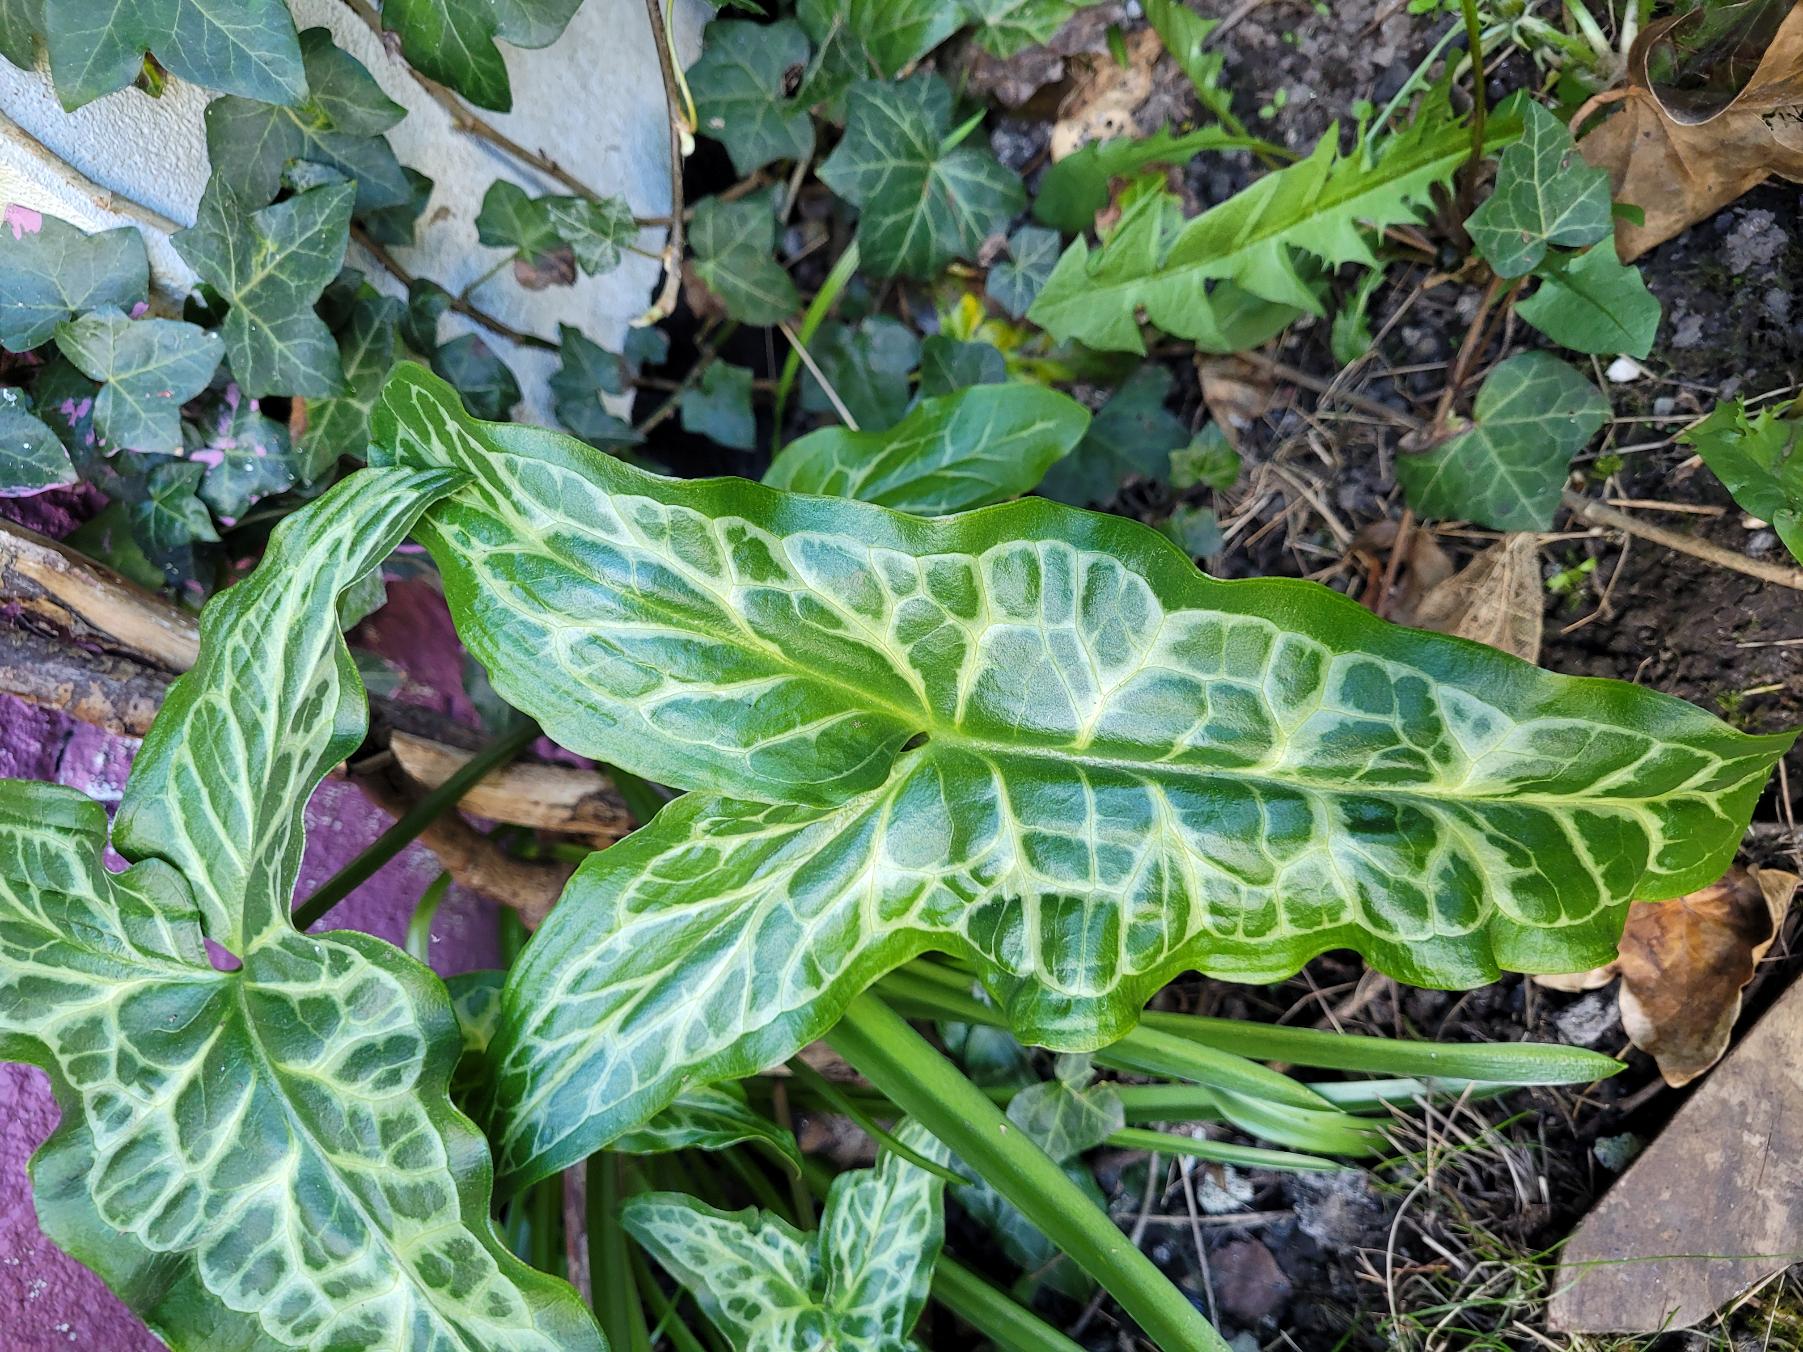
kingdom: Plantae
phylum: Tracheophyta
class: Liliopsida
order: Alismatales
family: Araceae
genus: Arum
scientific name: Arum italicum
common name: Italiensk arum
